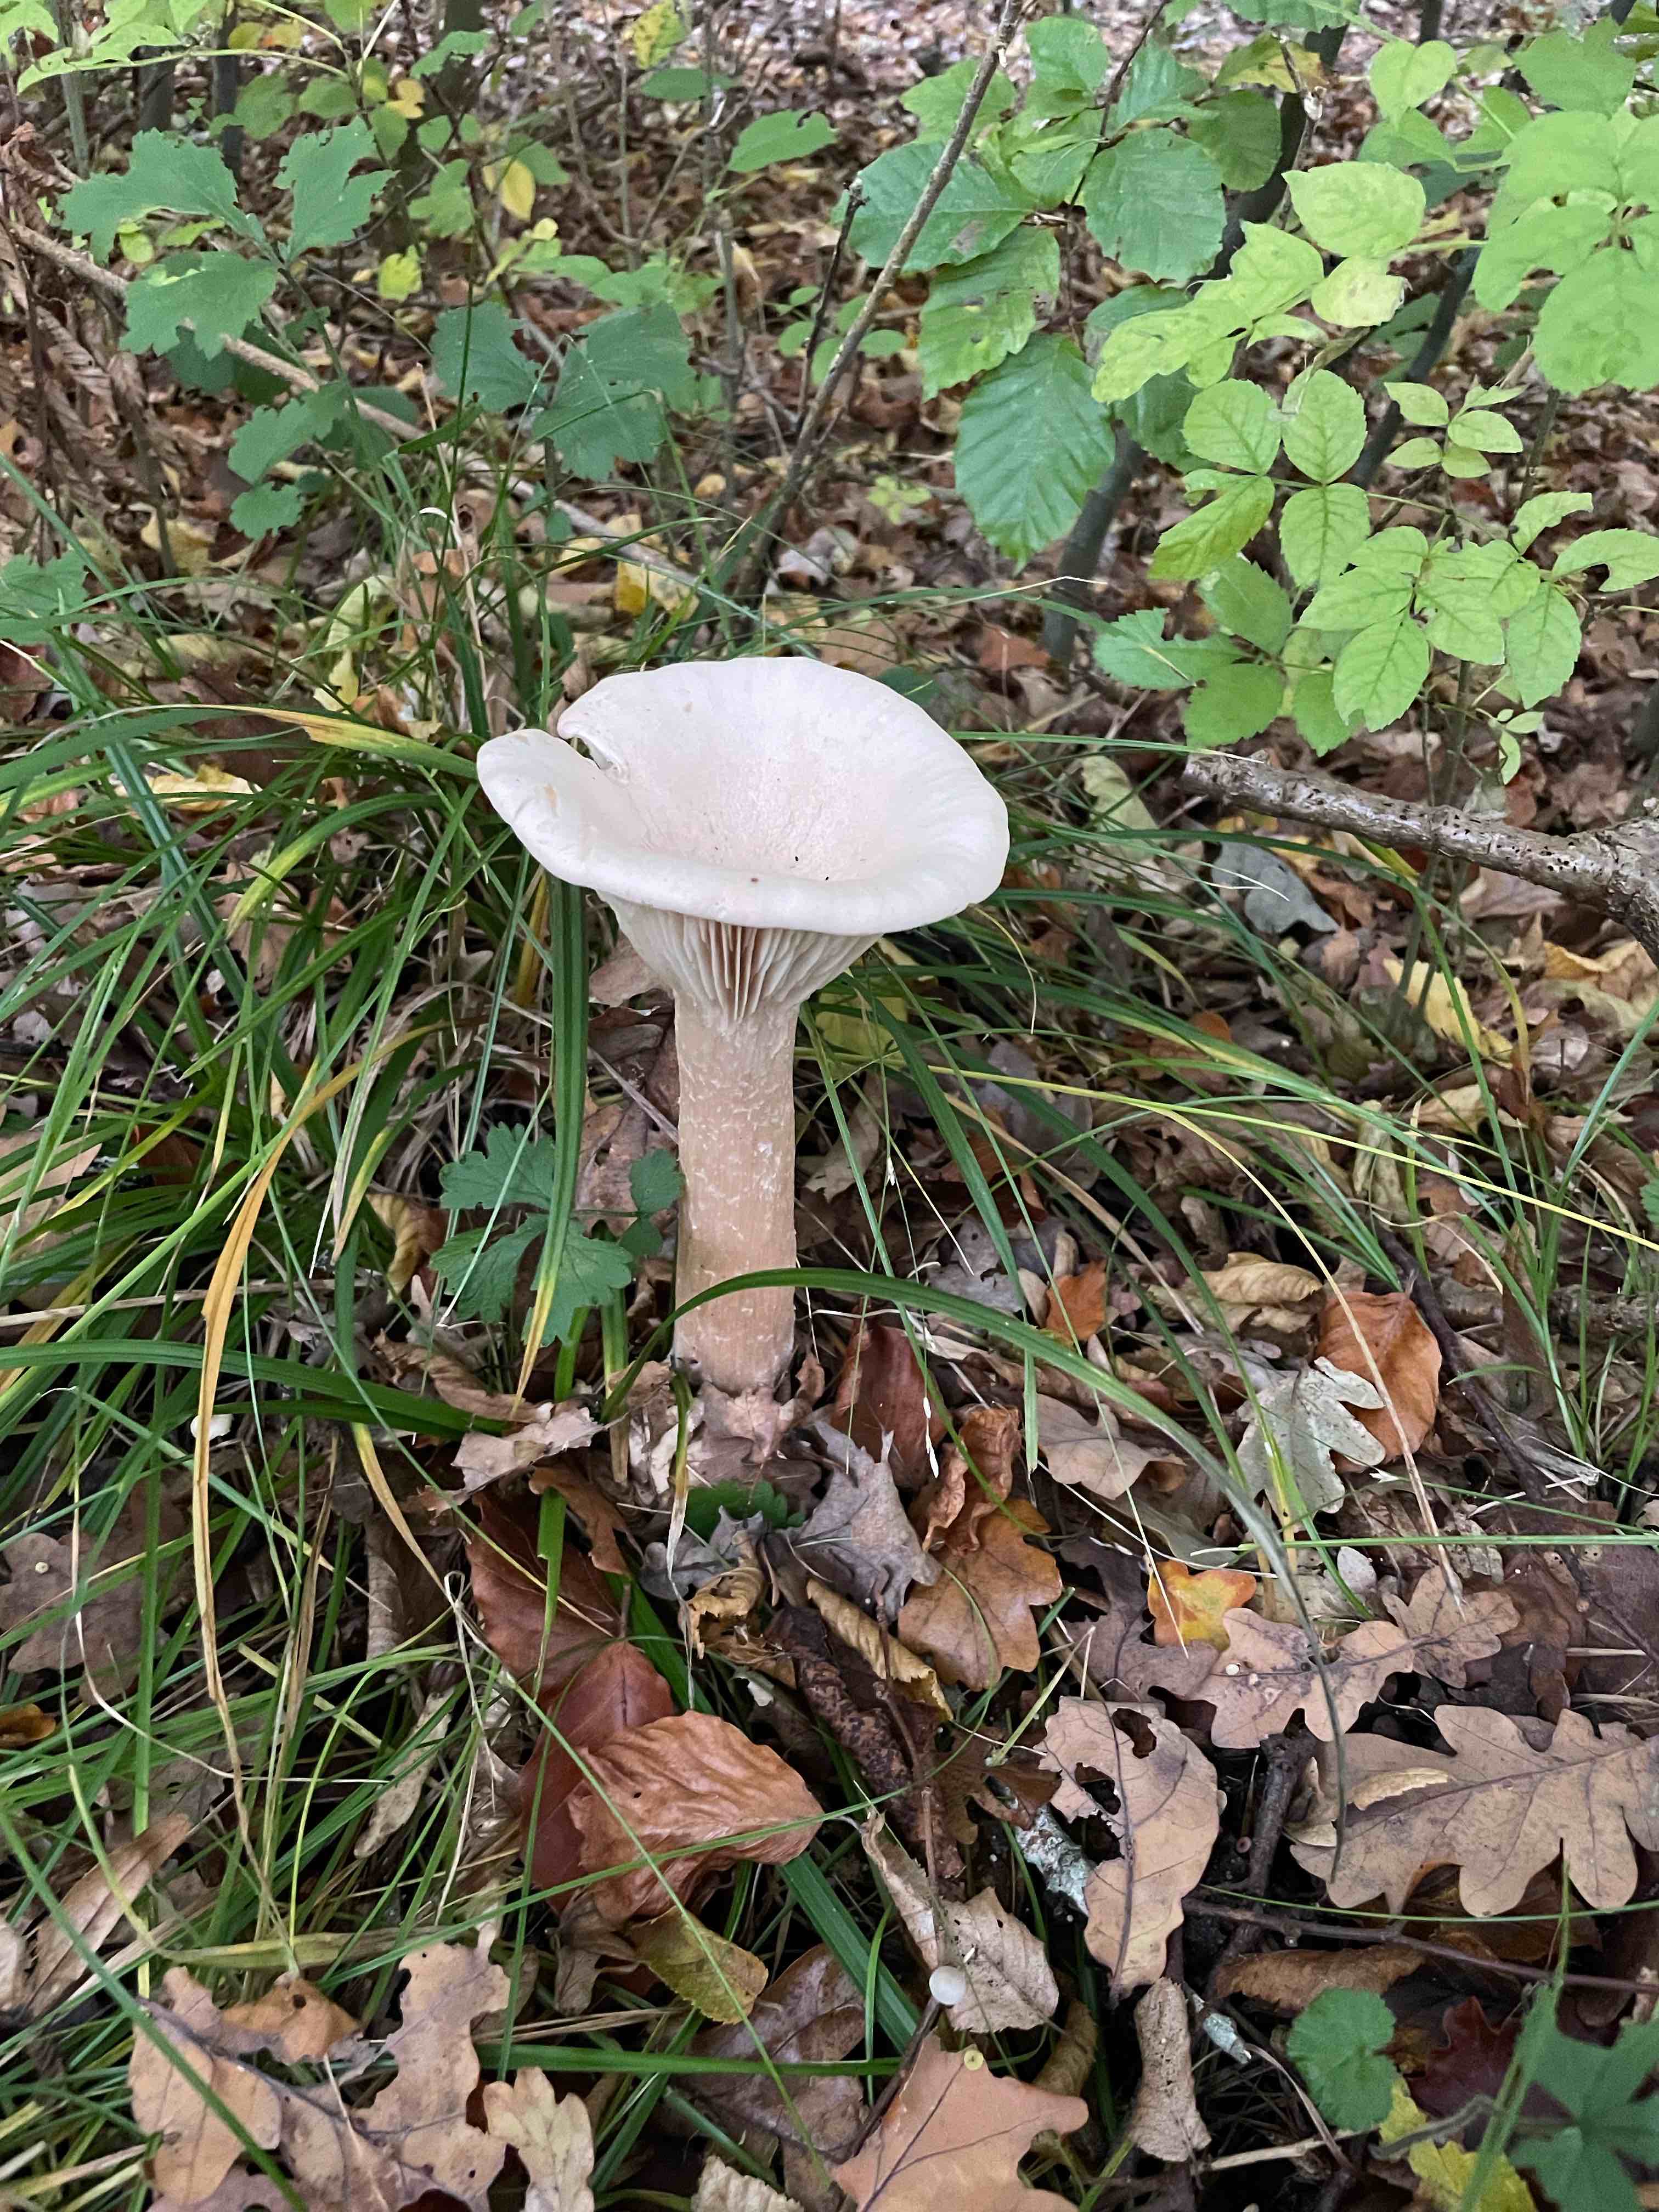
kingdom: Fungi
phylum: Basidiomycota
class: Agaricomycetes
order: Agaricales
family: Tricholomataceae
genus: Infundibulicybe
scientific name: Infundibulicybe geotropa
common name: stor tragthat
